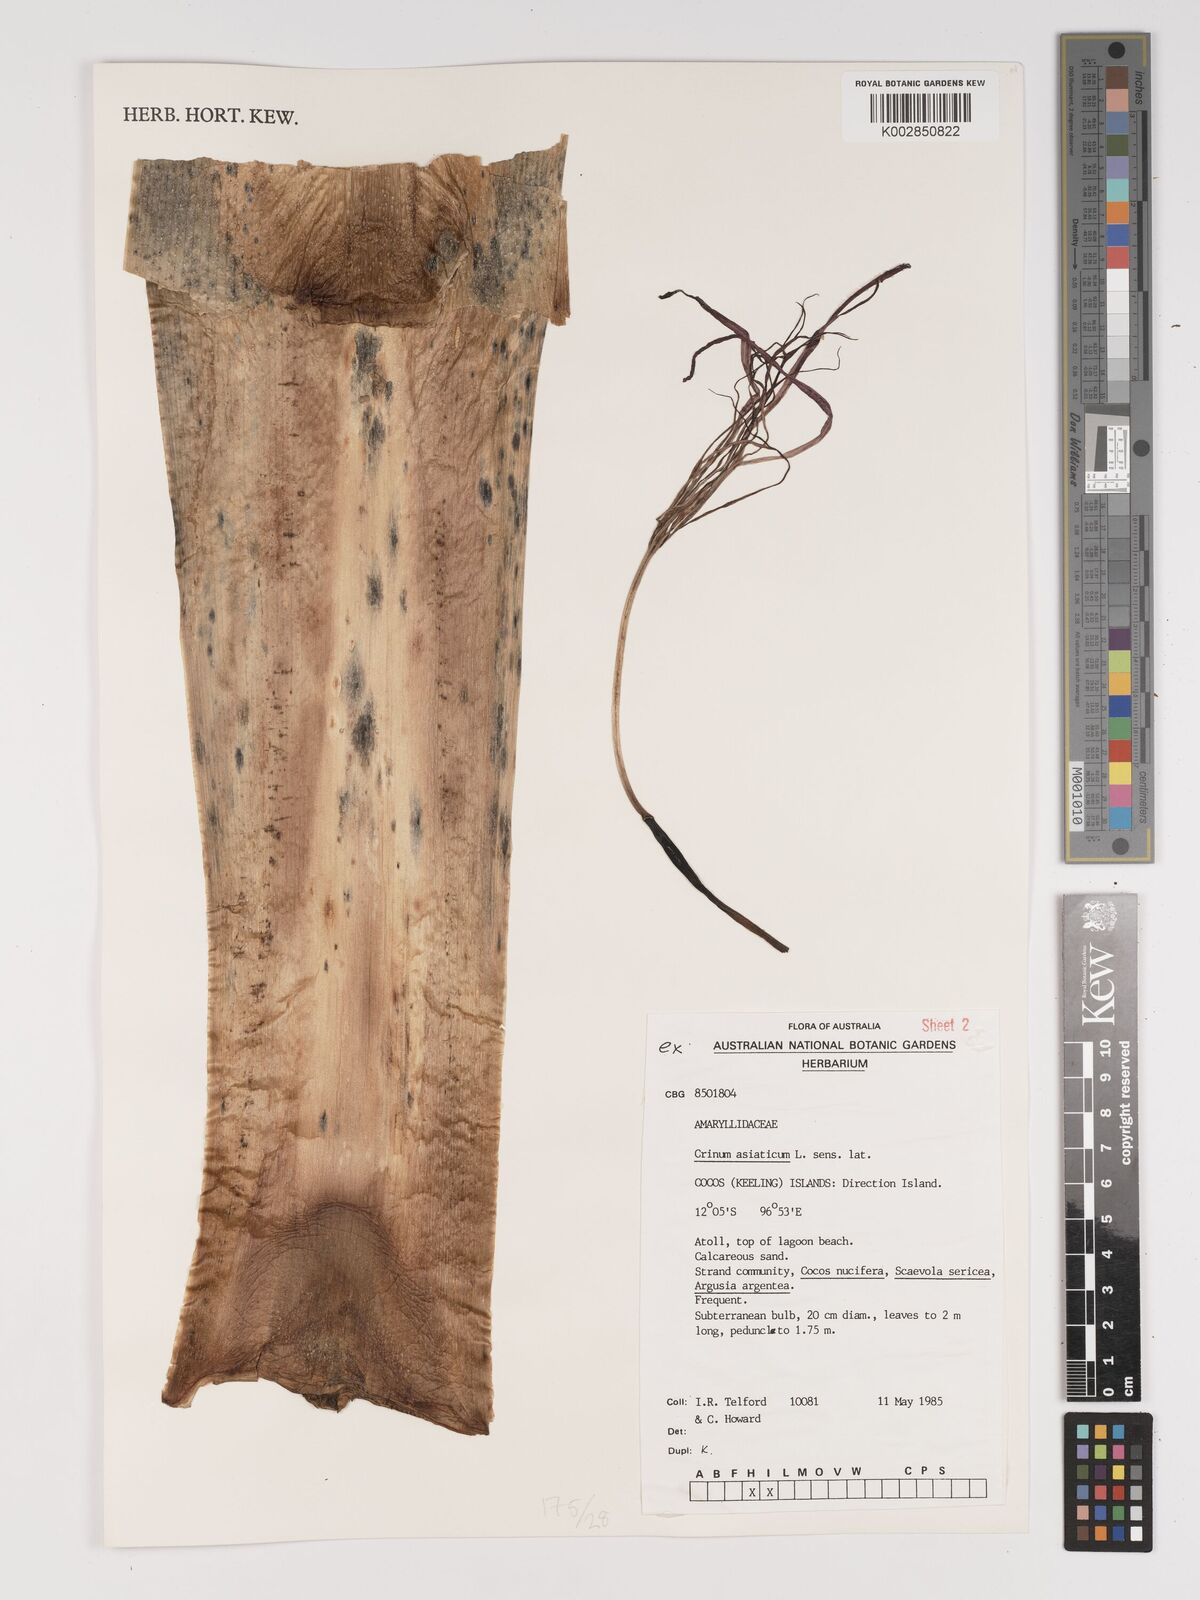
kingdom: Plantae
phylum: Tracheophyta
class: Liliopsida
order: Asparagales
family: Amaryllidaceae
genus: Crinum
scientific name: Crinum asiaticum
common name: Poisonbulb
